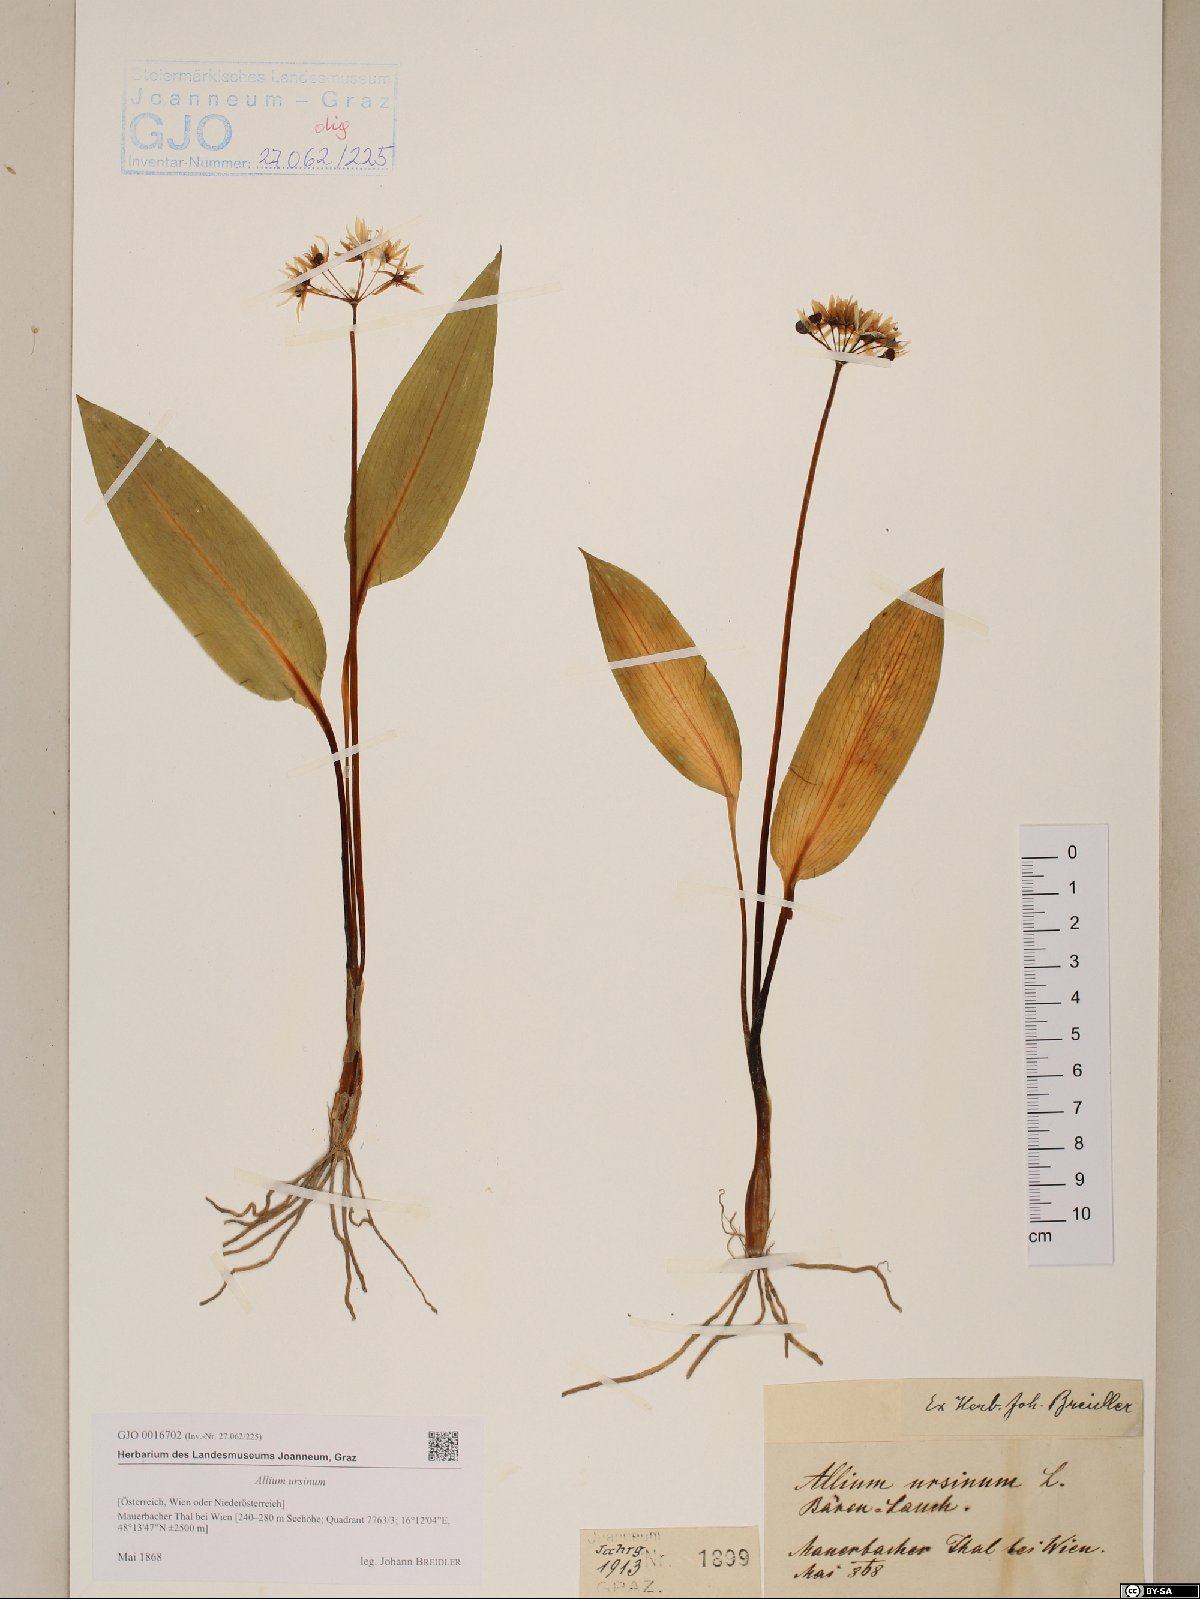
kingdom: Plantae
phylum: Tracheophyta
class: Liliopsida
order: Asparagales
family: Amaryllidaceae
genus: Allium
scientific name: Allium ursinum
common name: Ramsons
